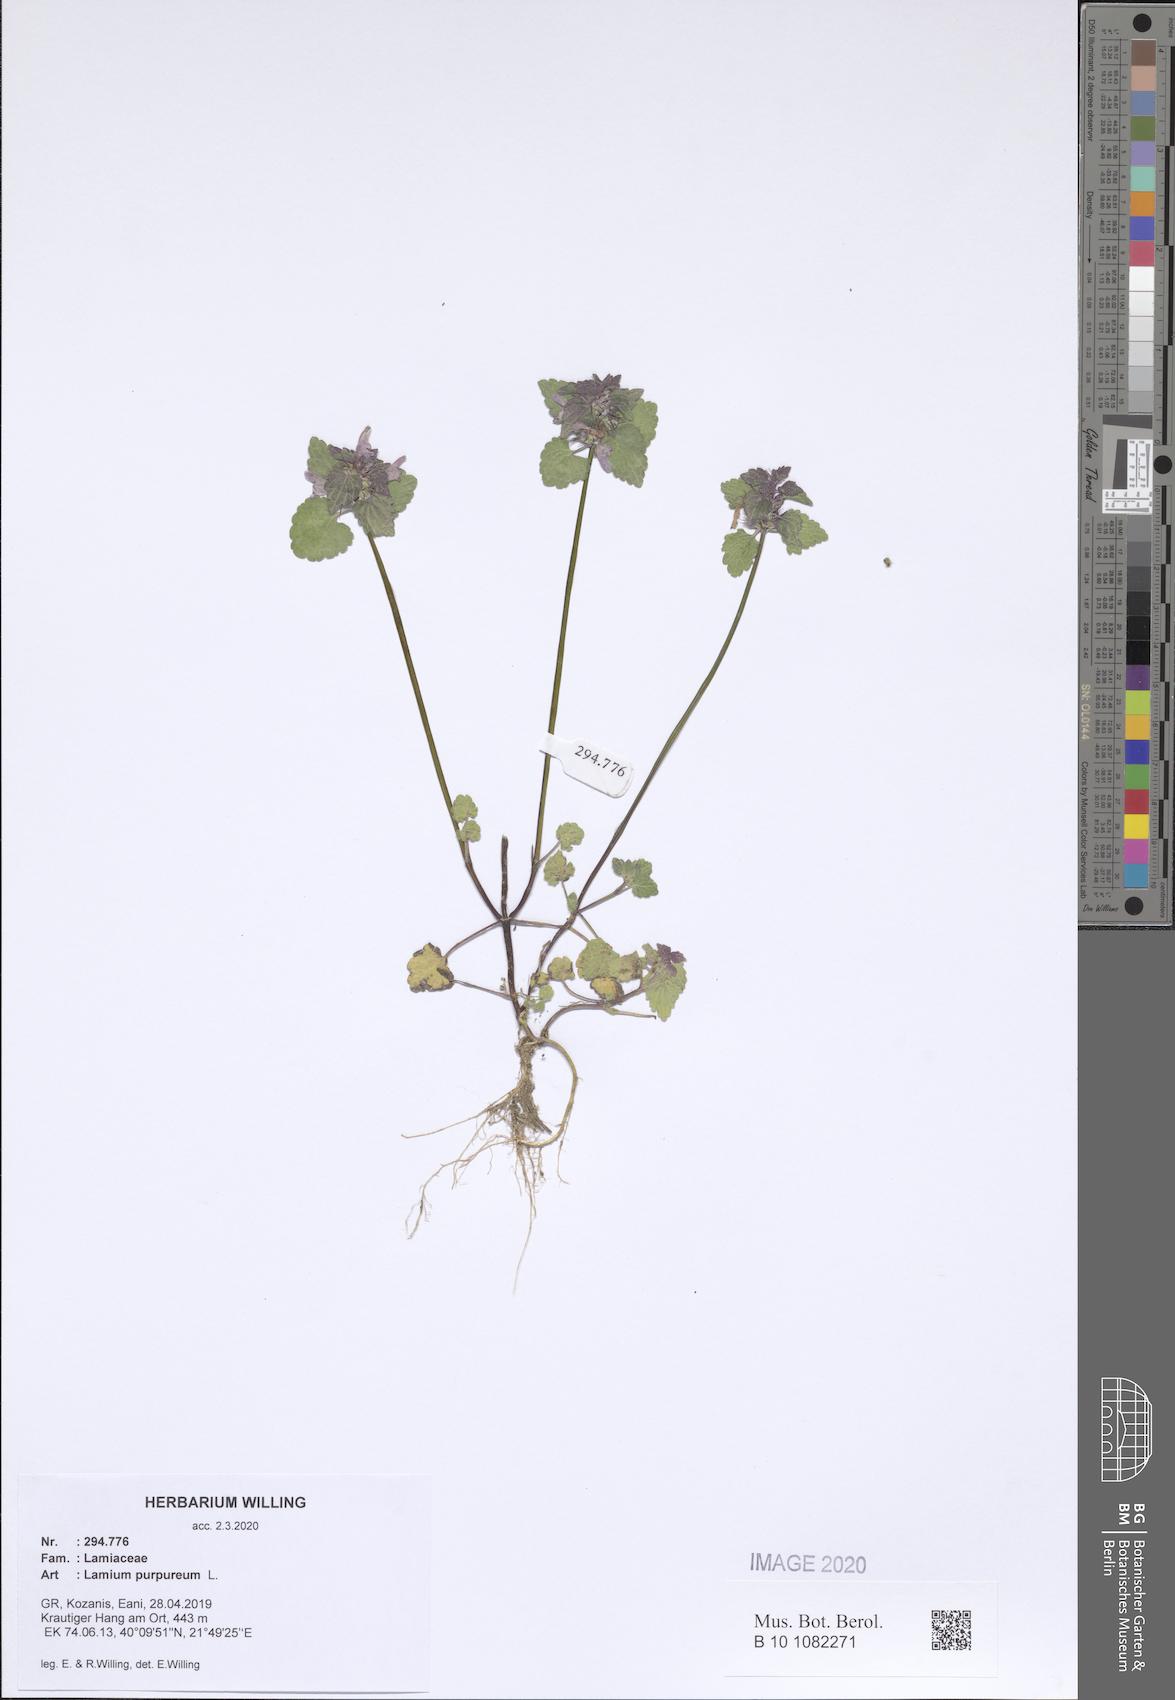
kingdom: Plantae
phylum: Tracheophyta
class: Magnoliopsida
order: Lamiales
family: Lamiaceae
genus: Lamium
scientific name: Lamium purpureum
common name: Red dead-nettle
